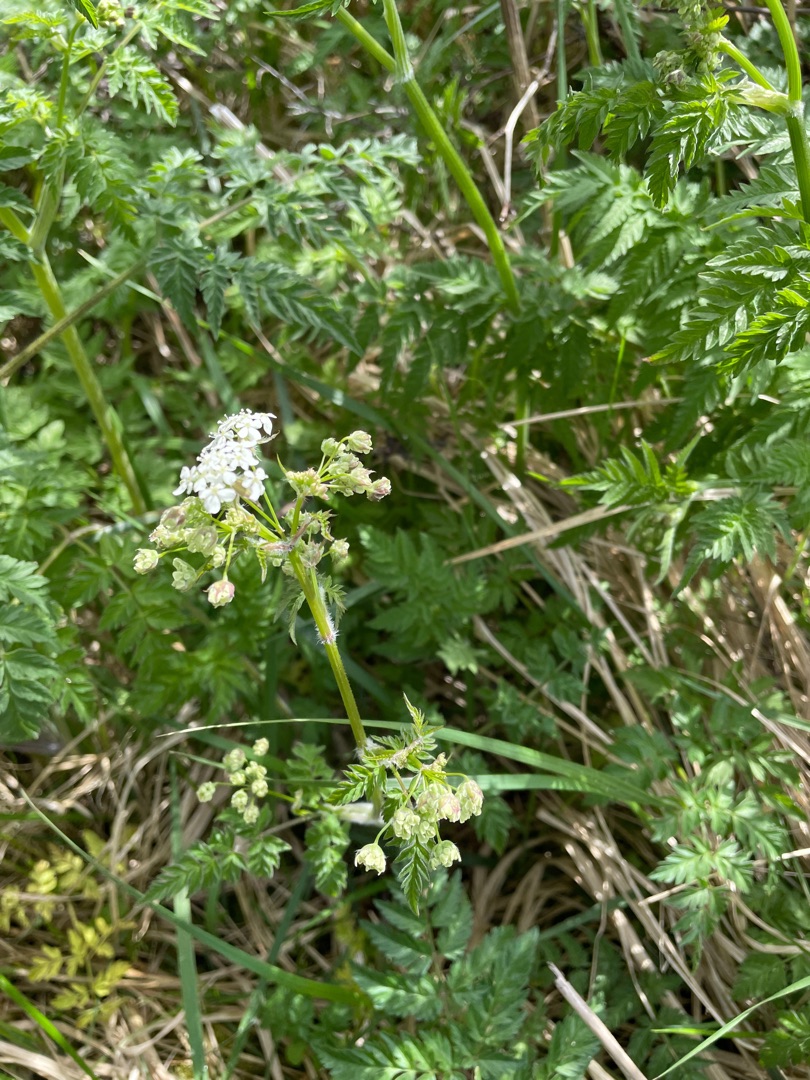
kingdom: Plantae
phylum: Tracheophyta
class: Magnoliopsida
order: Apiales
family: Apiaceae
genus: Anthriscus
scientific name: Anthriscus sylvestris
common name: Vild kørvel
